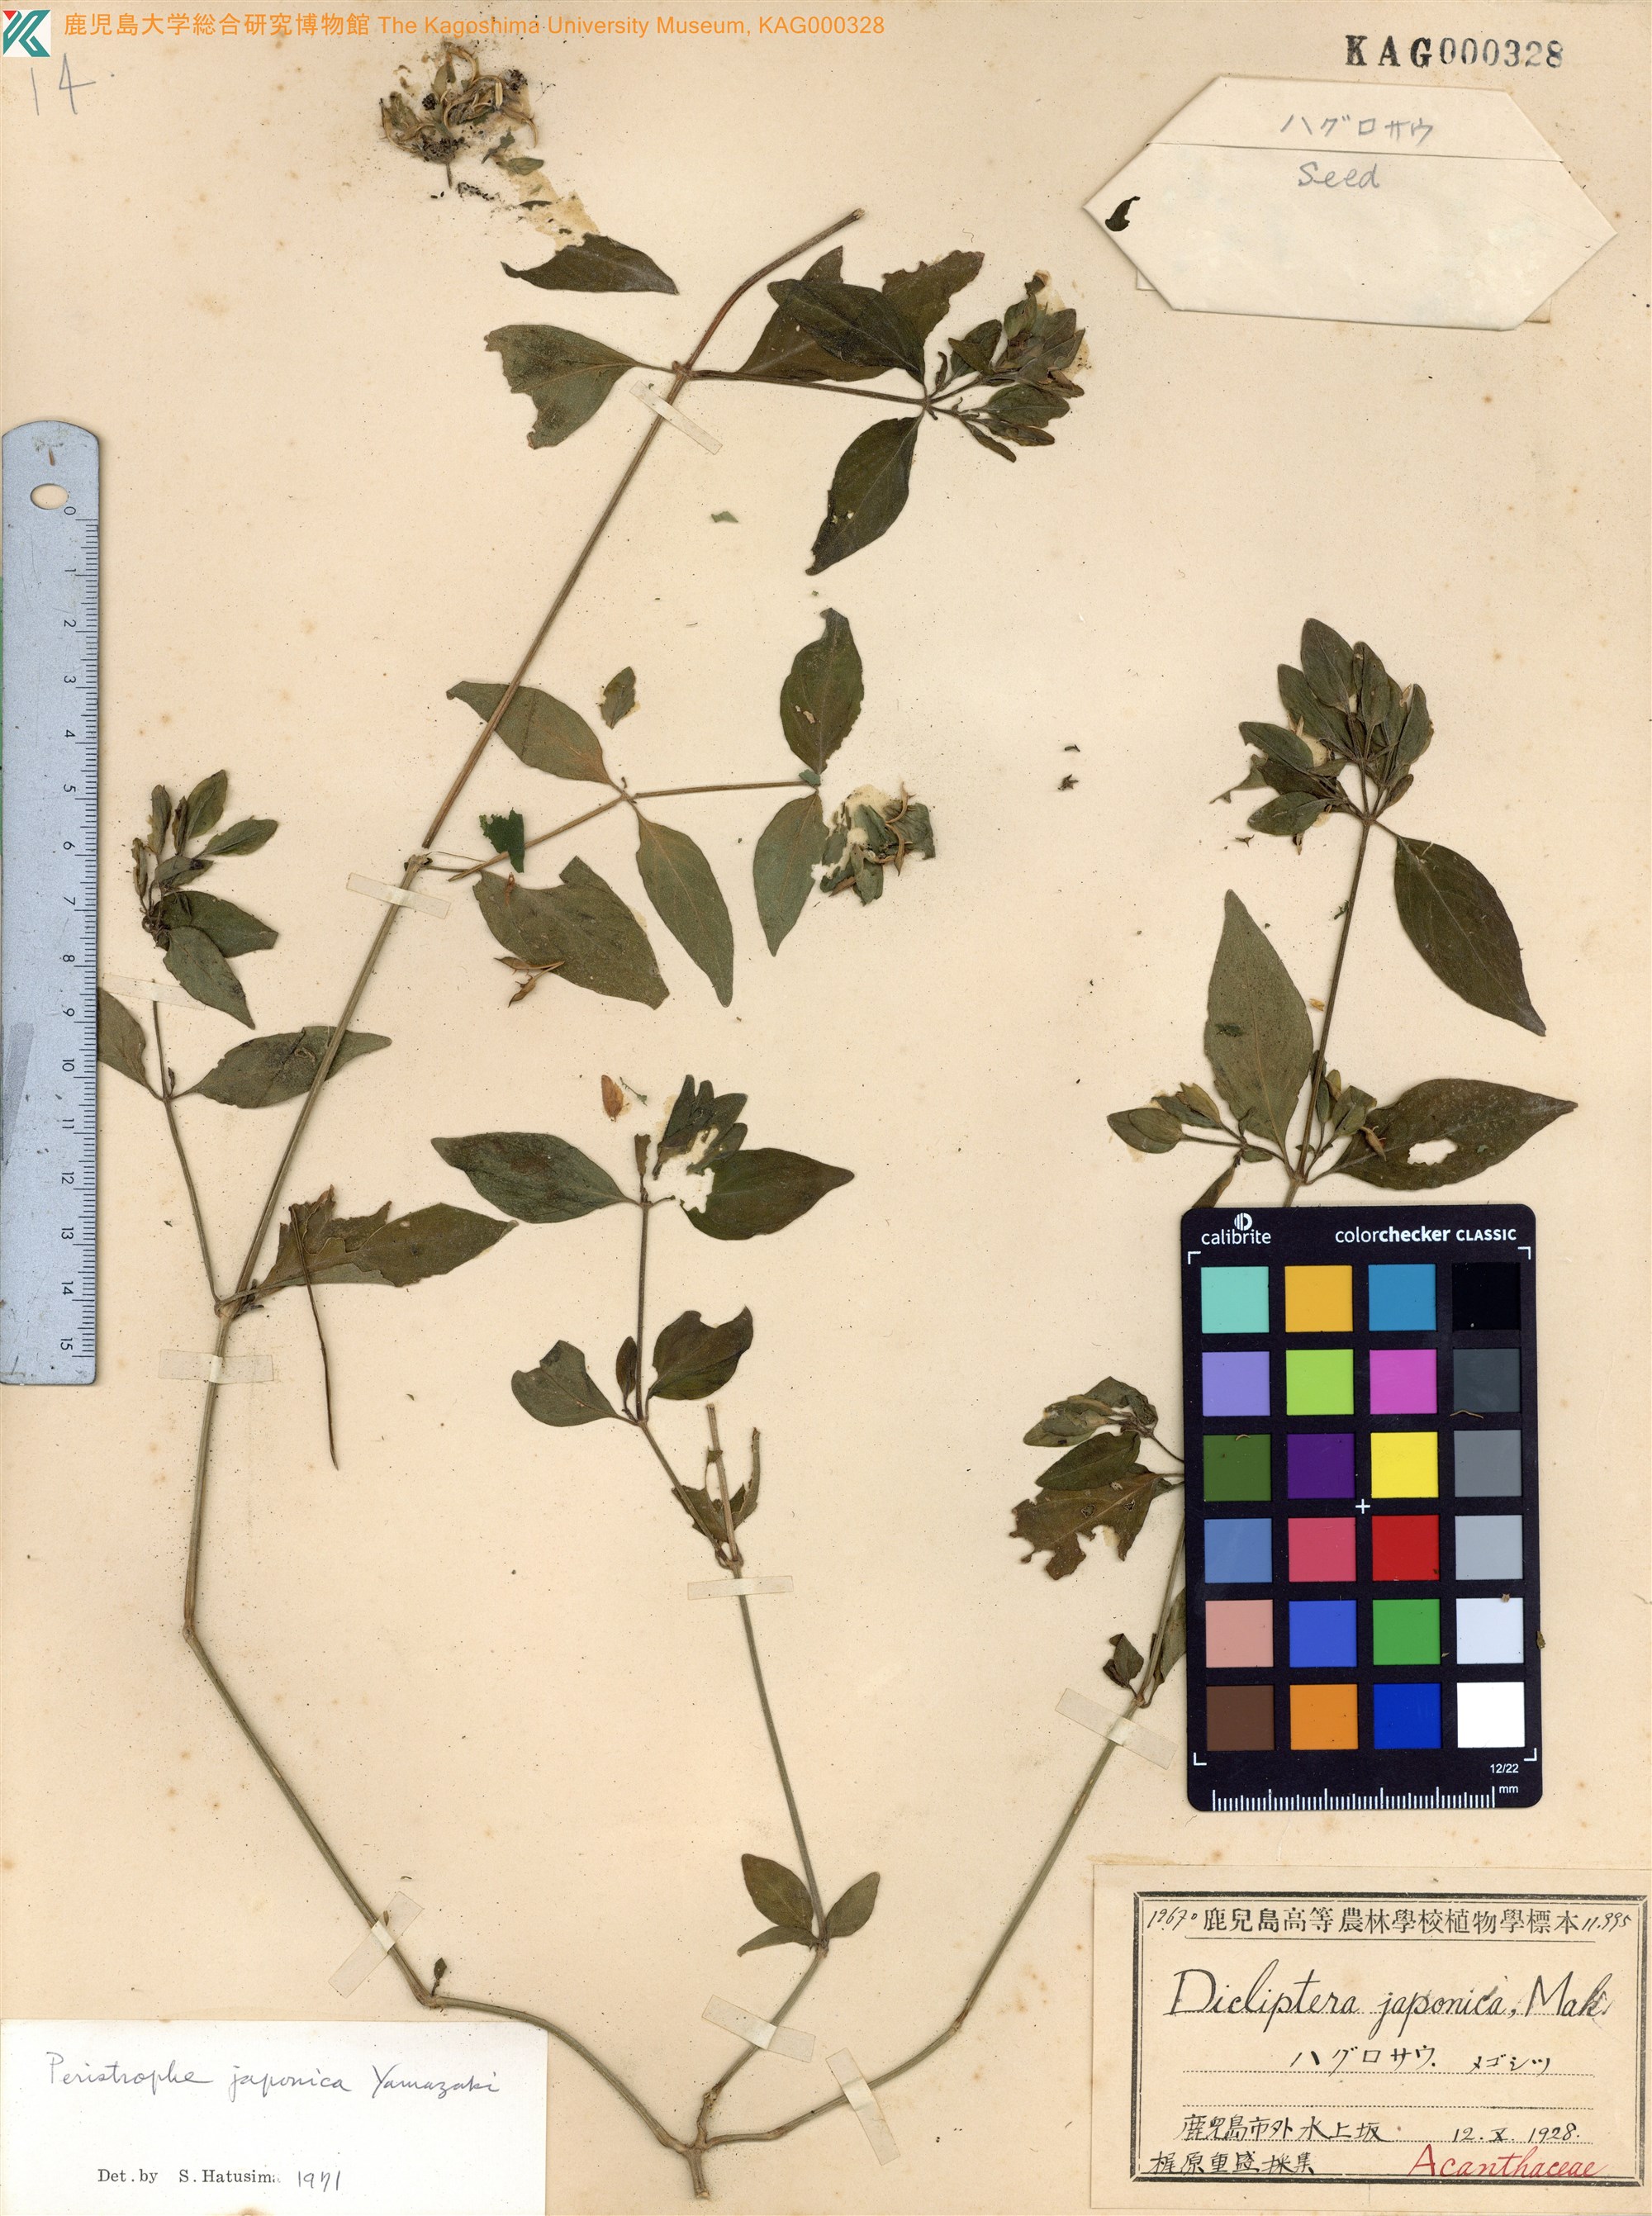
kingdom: Plantae
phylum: Tracheophyta
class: Magnoliopsida
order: Lamiales
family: Acanthaceae
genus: Dicliptera
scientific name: Dicliptera japonica
